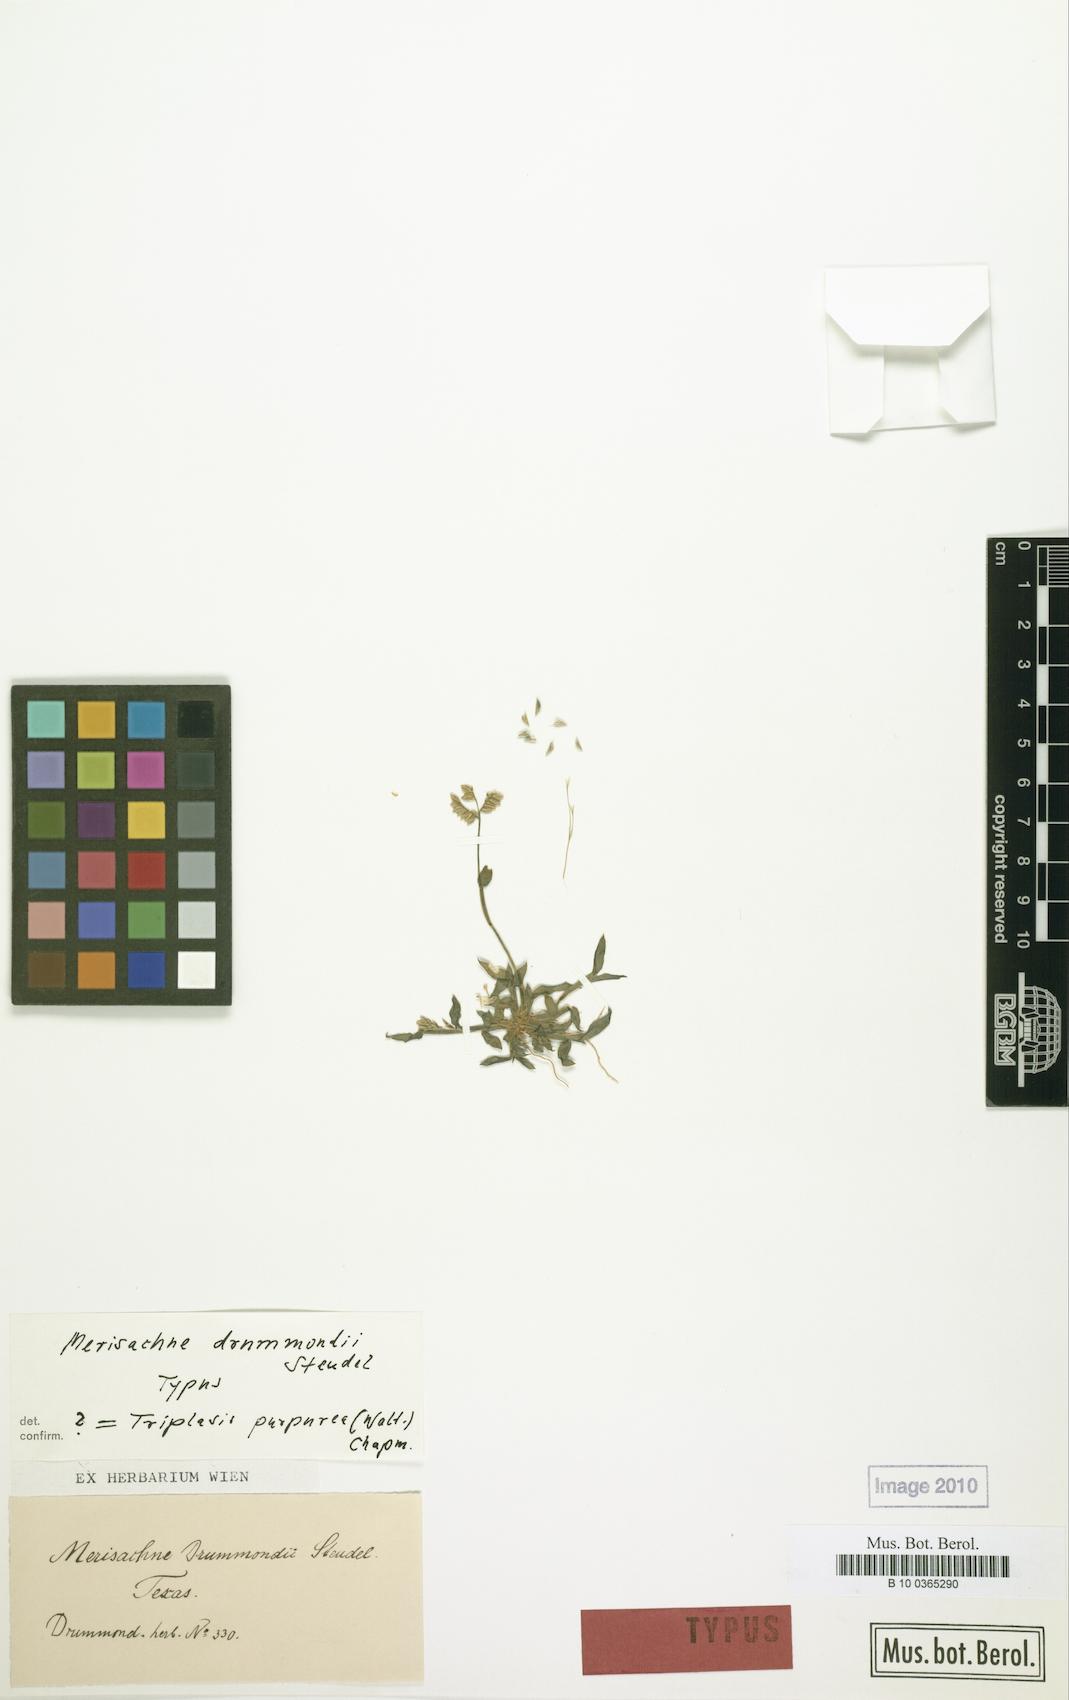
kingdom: Plantae
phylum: Tracheophyta
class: Liliopsida
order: Poales
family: Poaceae
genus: Triplasis
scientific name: Triplasis purpurea
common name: Purple sand grass
